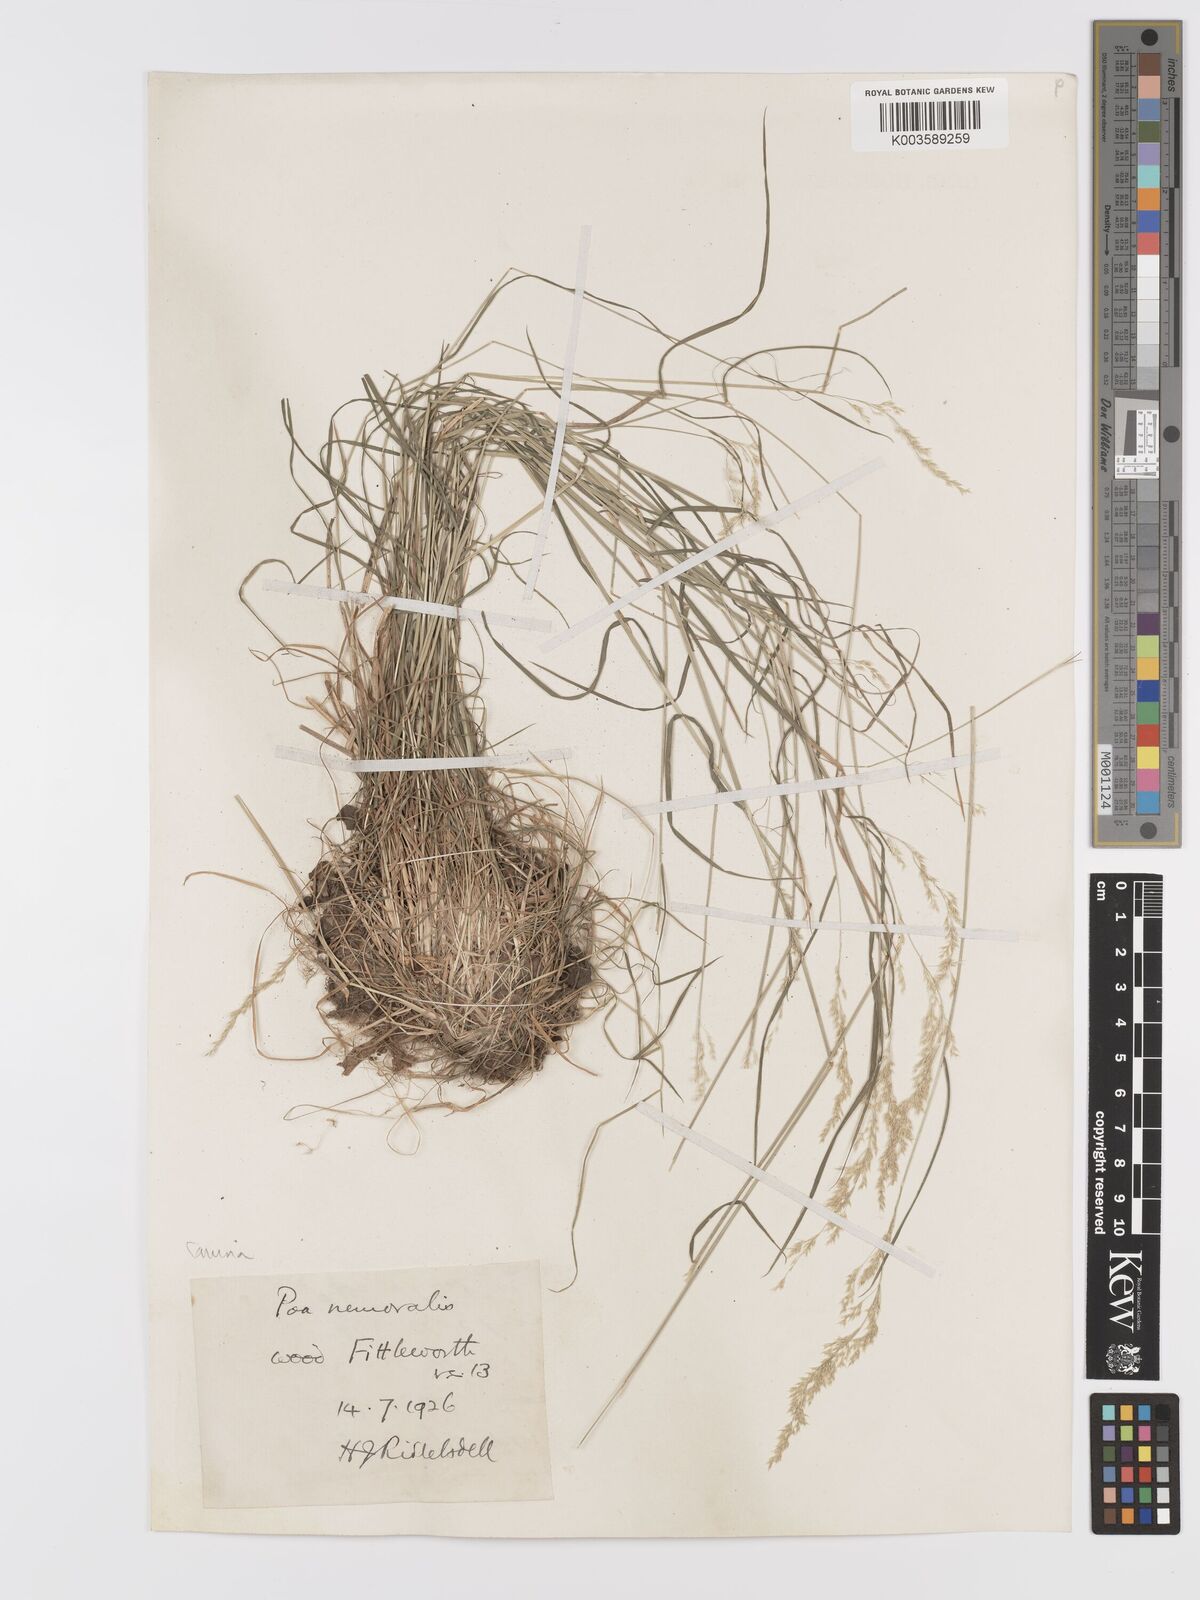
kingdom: Plantae
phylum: Tracheophyta
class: Liliopsida
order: Poales
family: Poaceae
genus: Agrostis
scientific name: Agrostis canina
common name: Velvet bent
